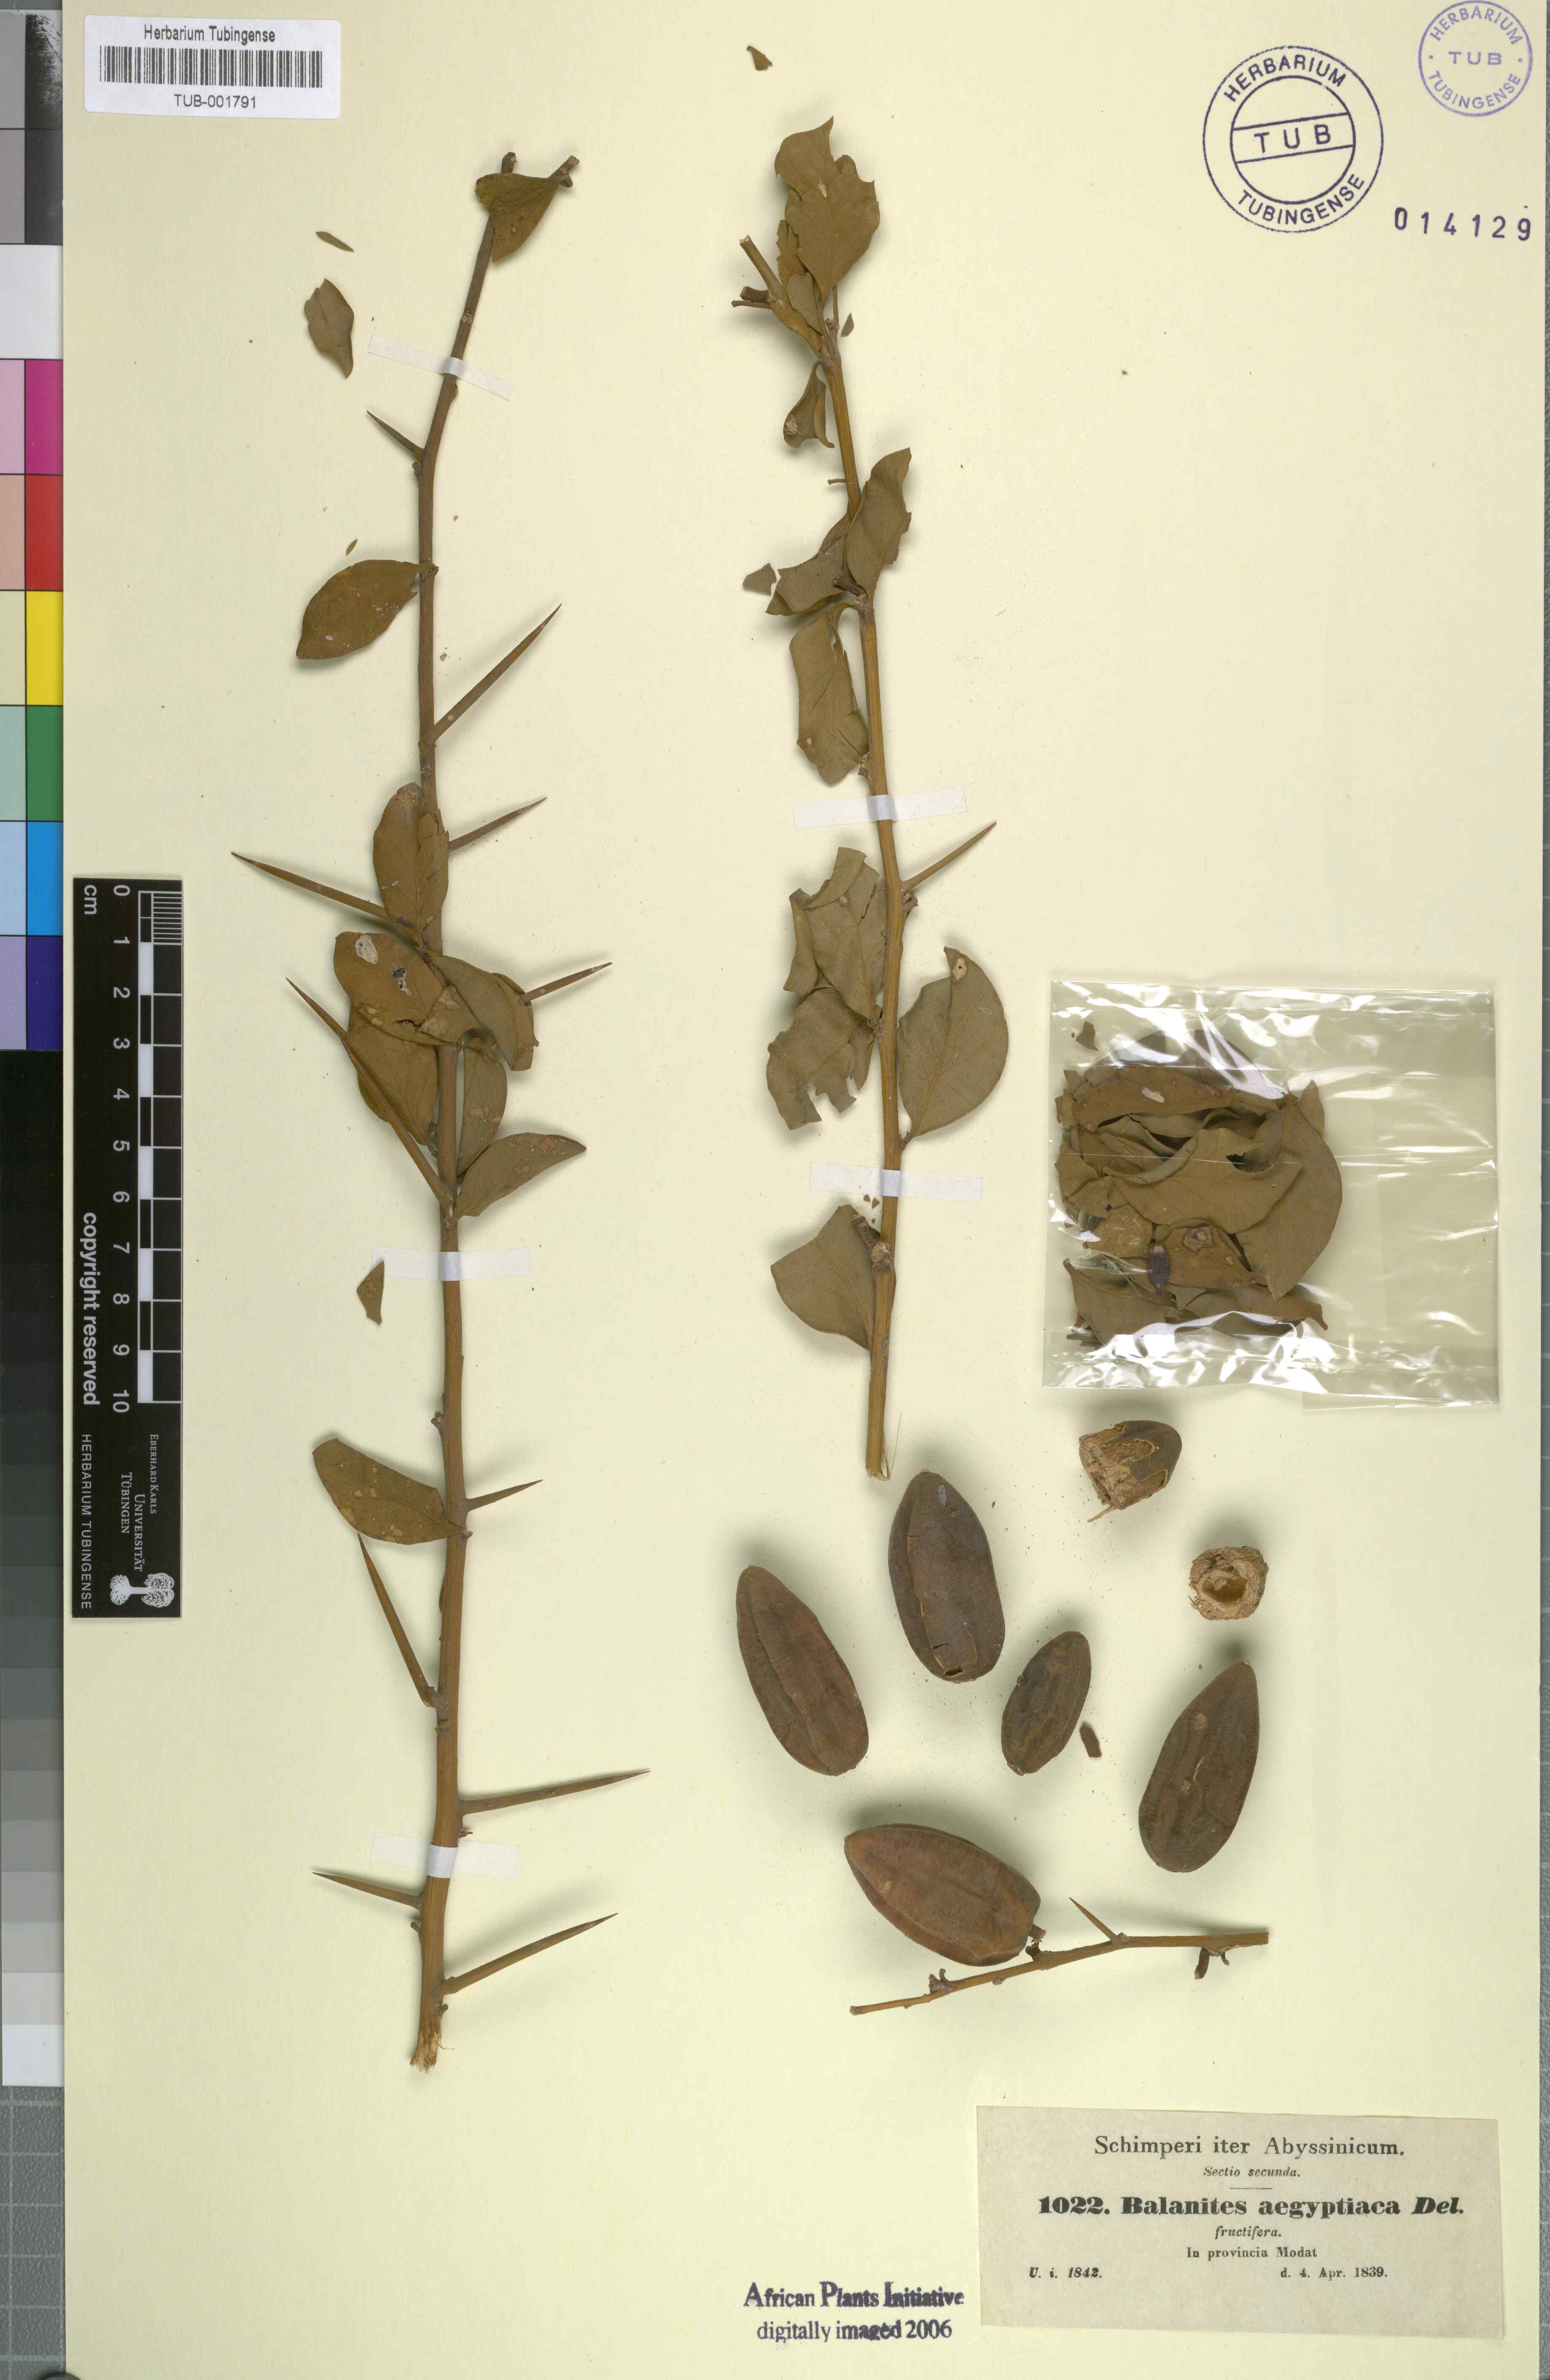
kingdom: Plantae
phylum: Tracheophyta
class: Magnoliopsida
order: Zygophyllales
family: Zygophyllaceae
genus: Balanites
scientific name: Balanites aegyptiaca
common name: Balanites
